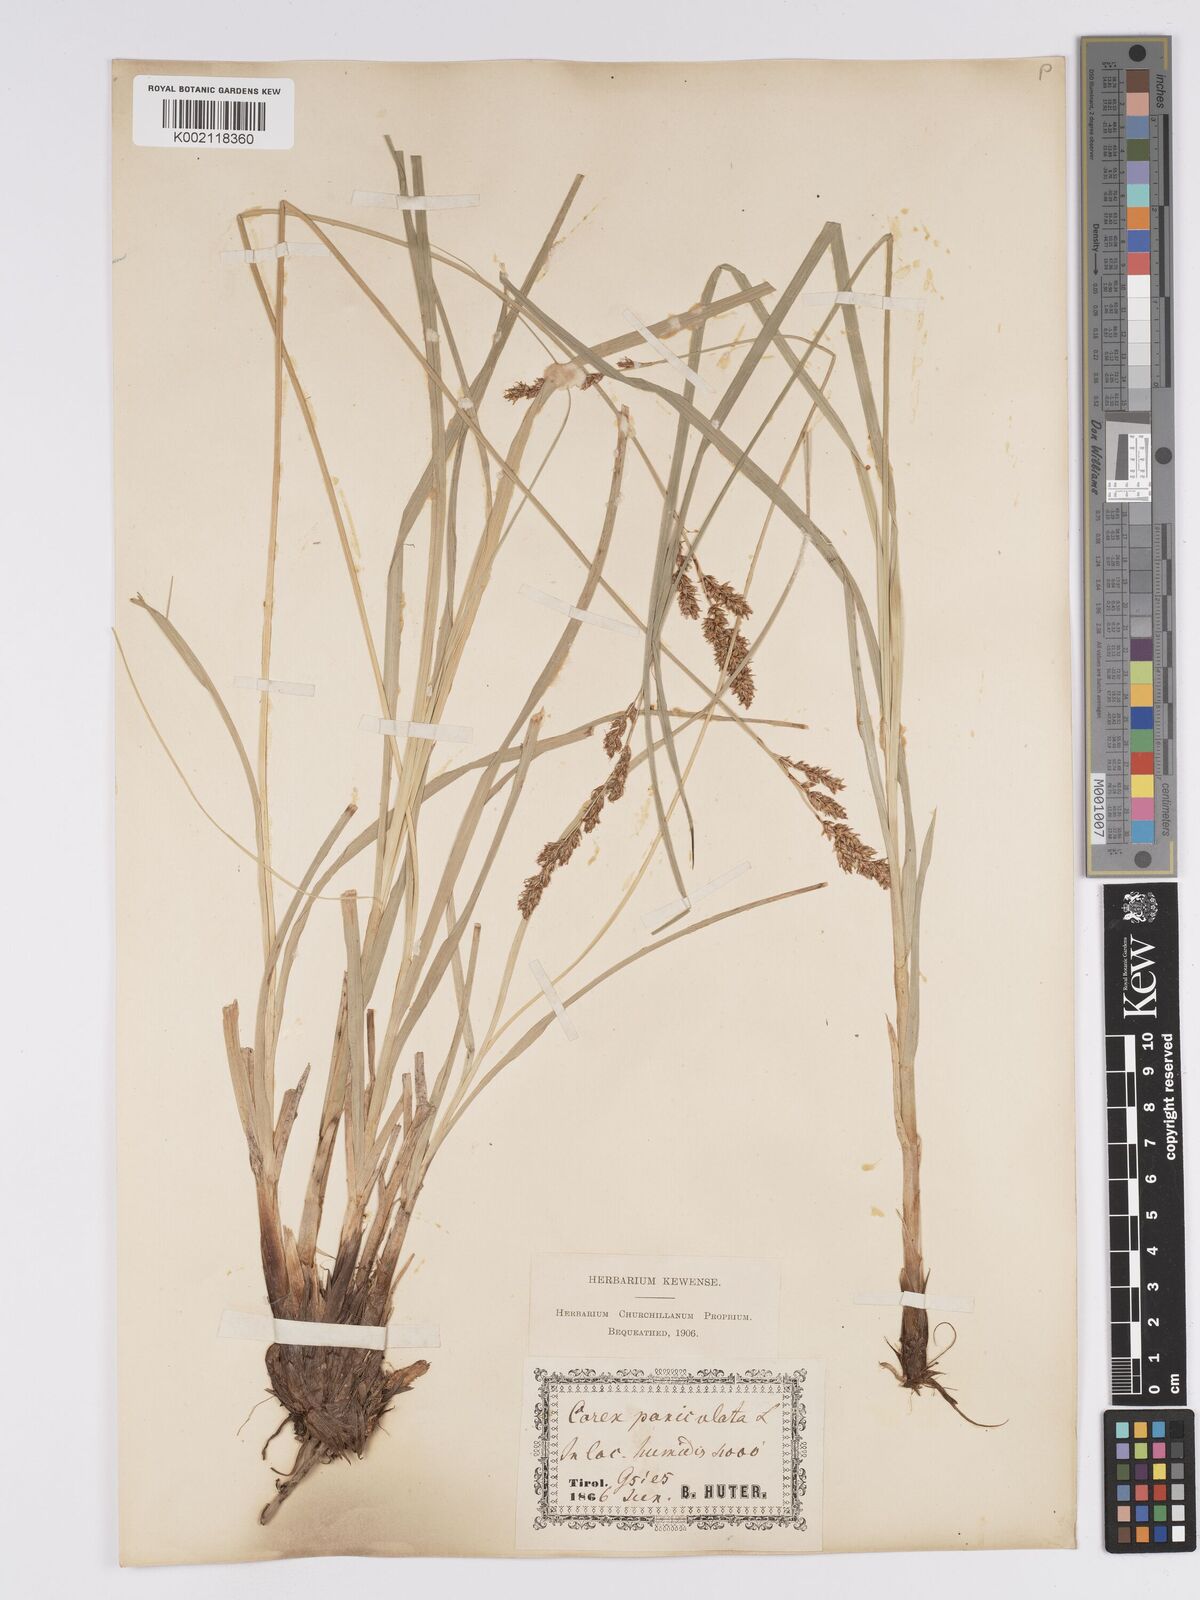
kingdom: Plantae
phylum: Tracheophyta
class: Liliopsida
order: Poales
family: Cyperaceae
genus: Carex
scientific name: Carex paniculata
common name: Greater tussock-sedge
